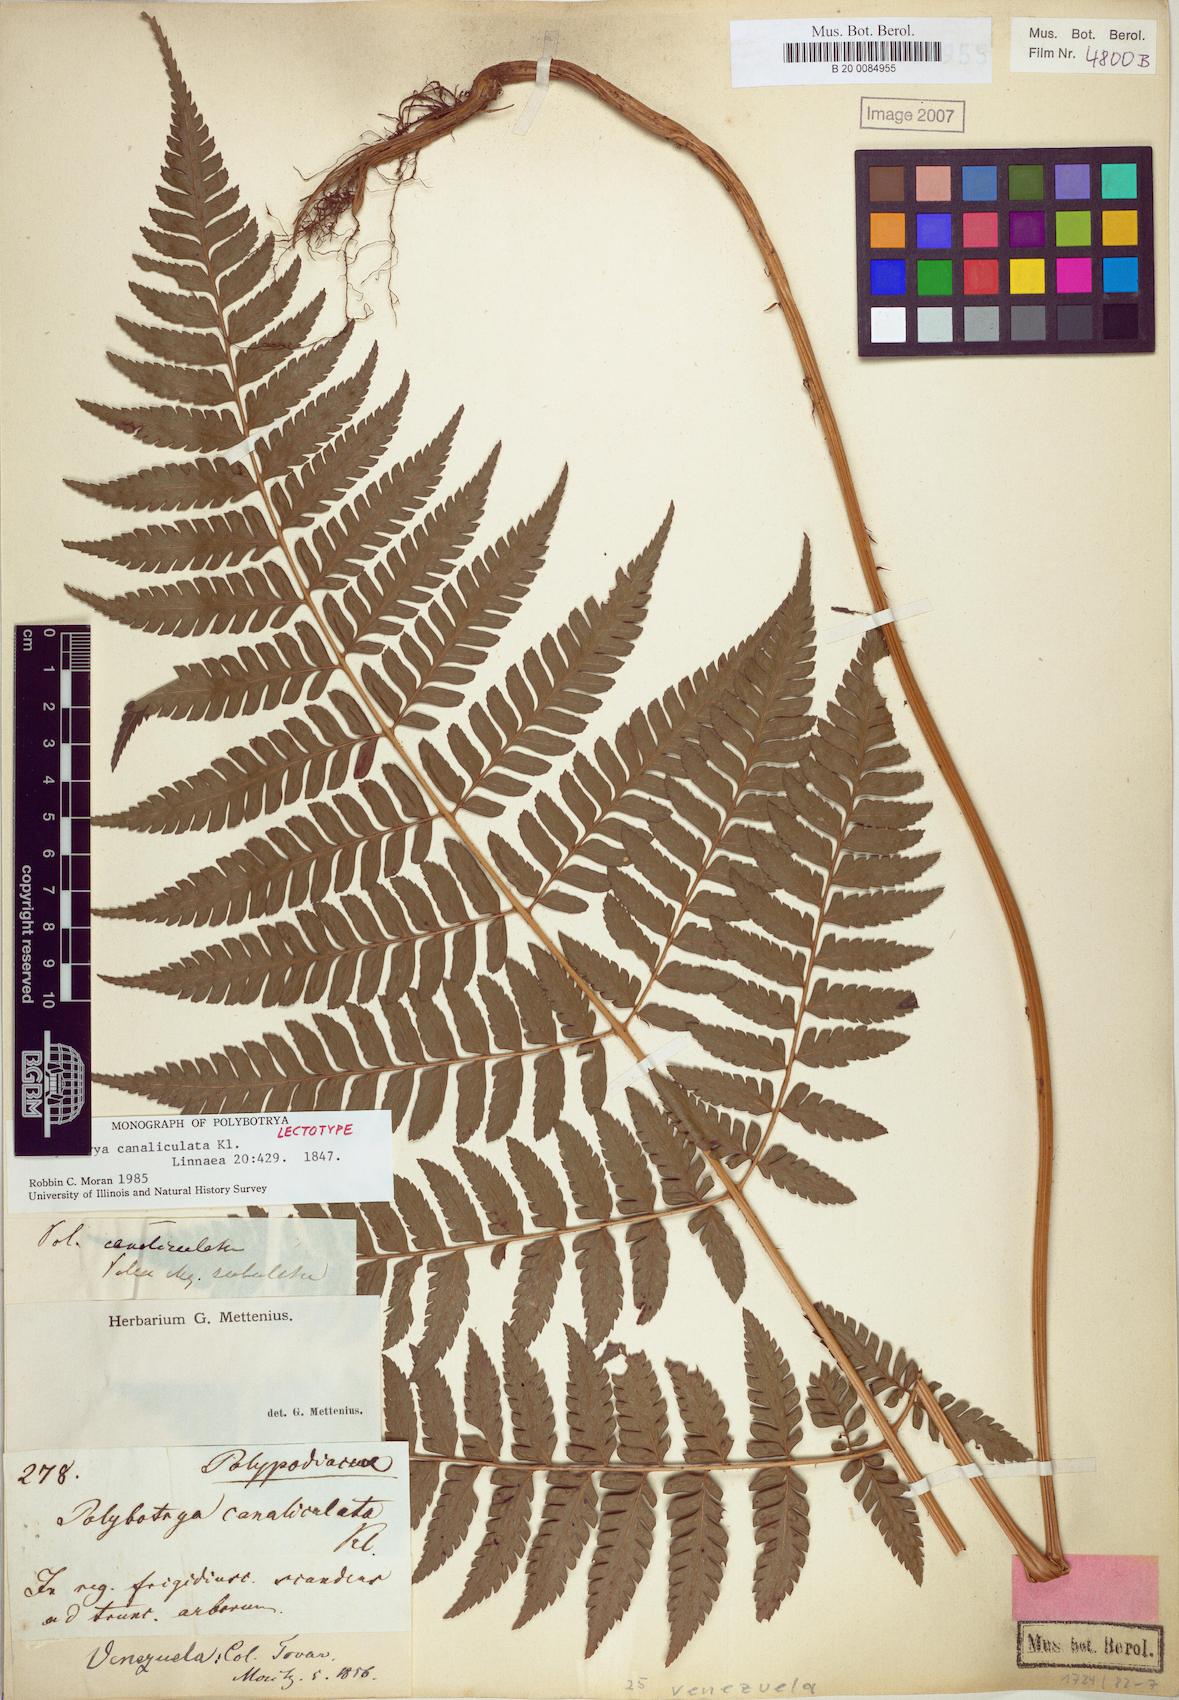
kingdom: Plantae
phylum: Tracheophyta
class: Polypodiopsida
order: Polypodiales
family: Dryopteridaceae
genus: Polybotrya
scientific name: Polybotrya canaliculata
